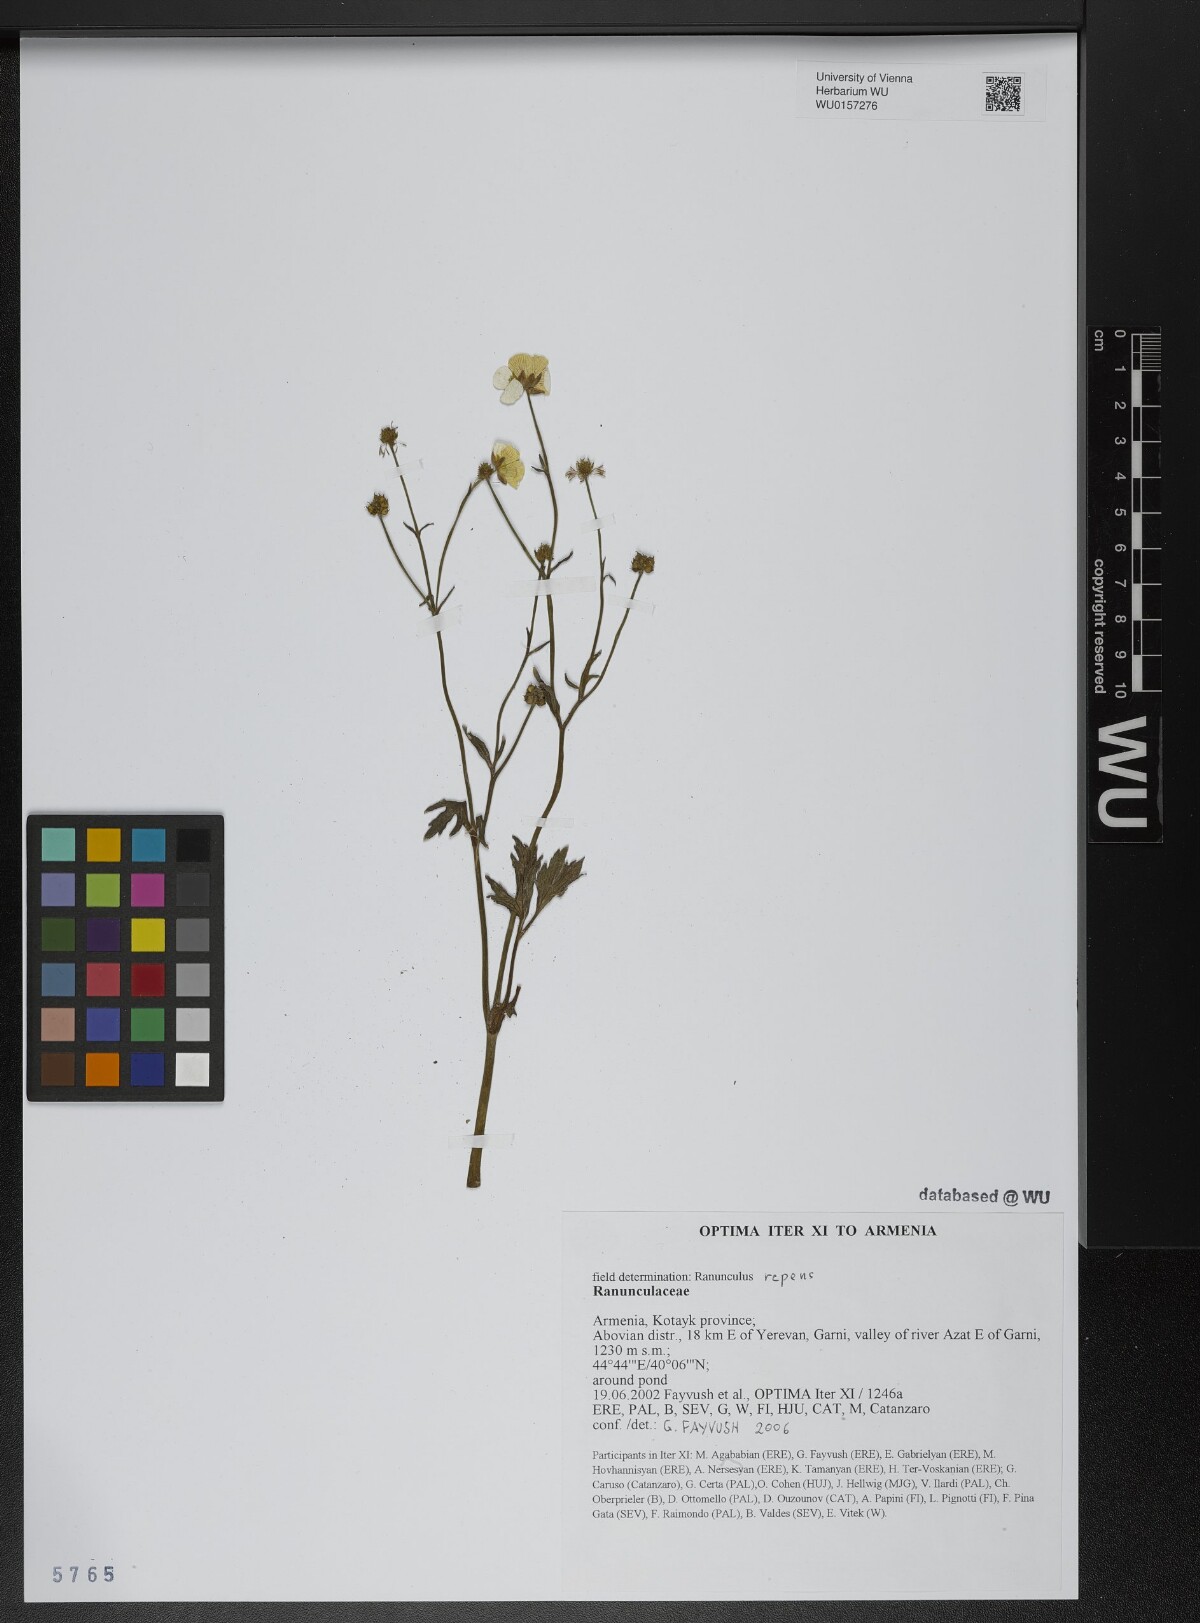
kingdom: Plantae
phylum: Tracheophyta
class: Magnoliopsida
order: Ranunculales
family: Ranunculaceae
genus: Ranunculus
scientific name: Ranunculus repens
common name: Creeping buttercup
